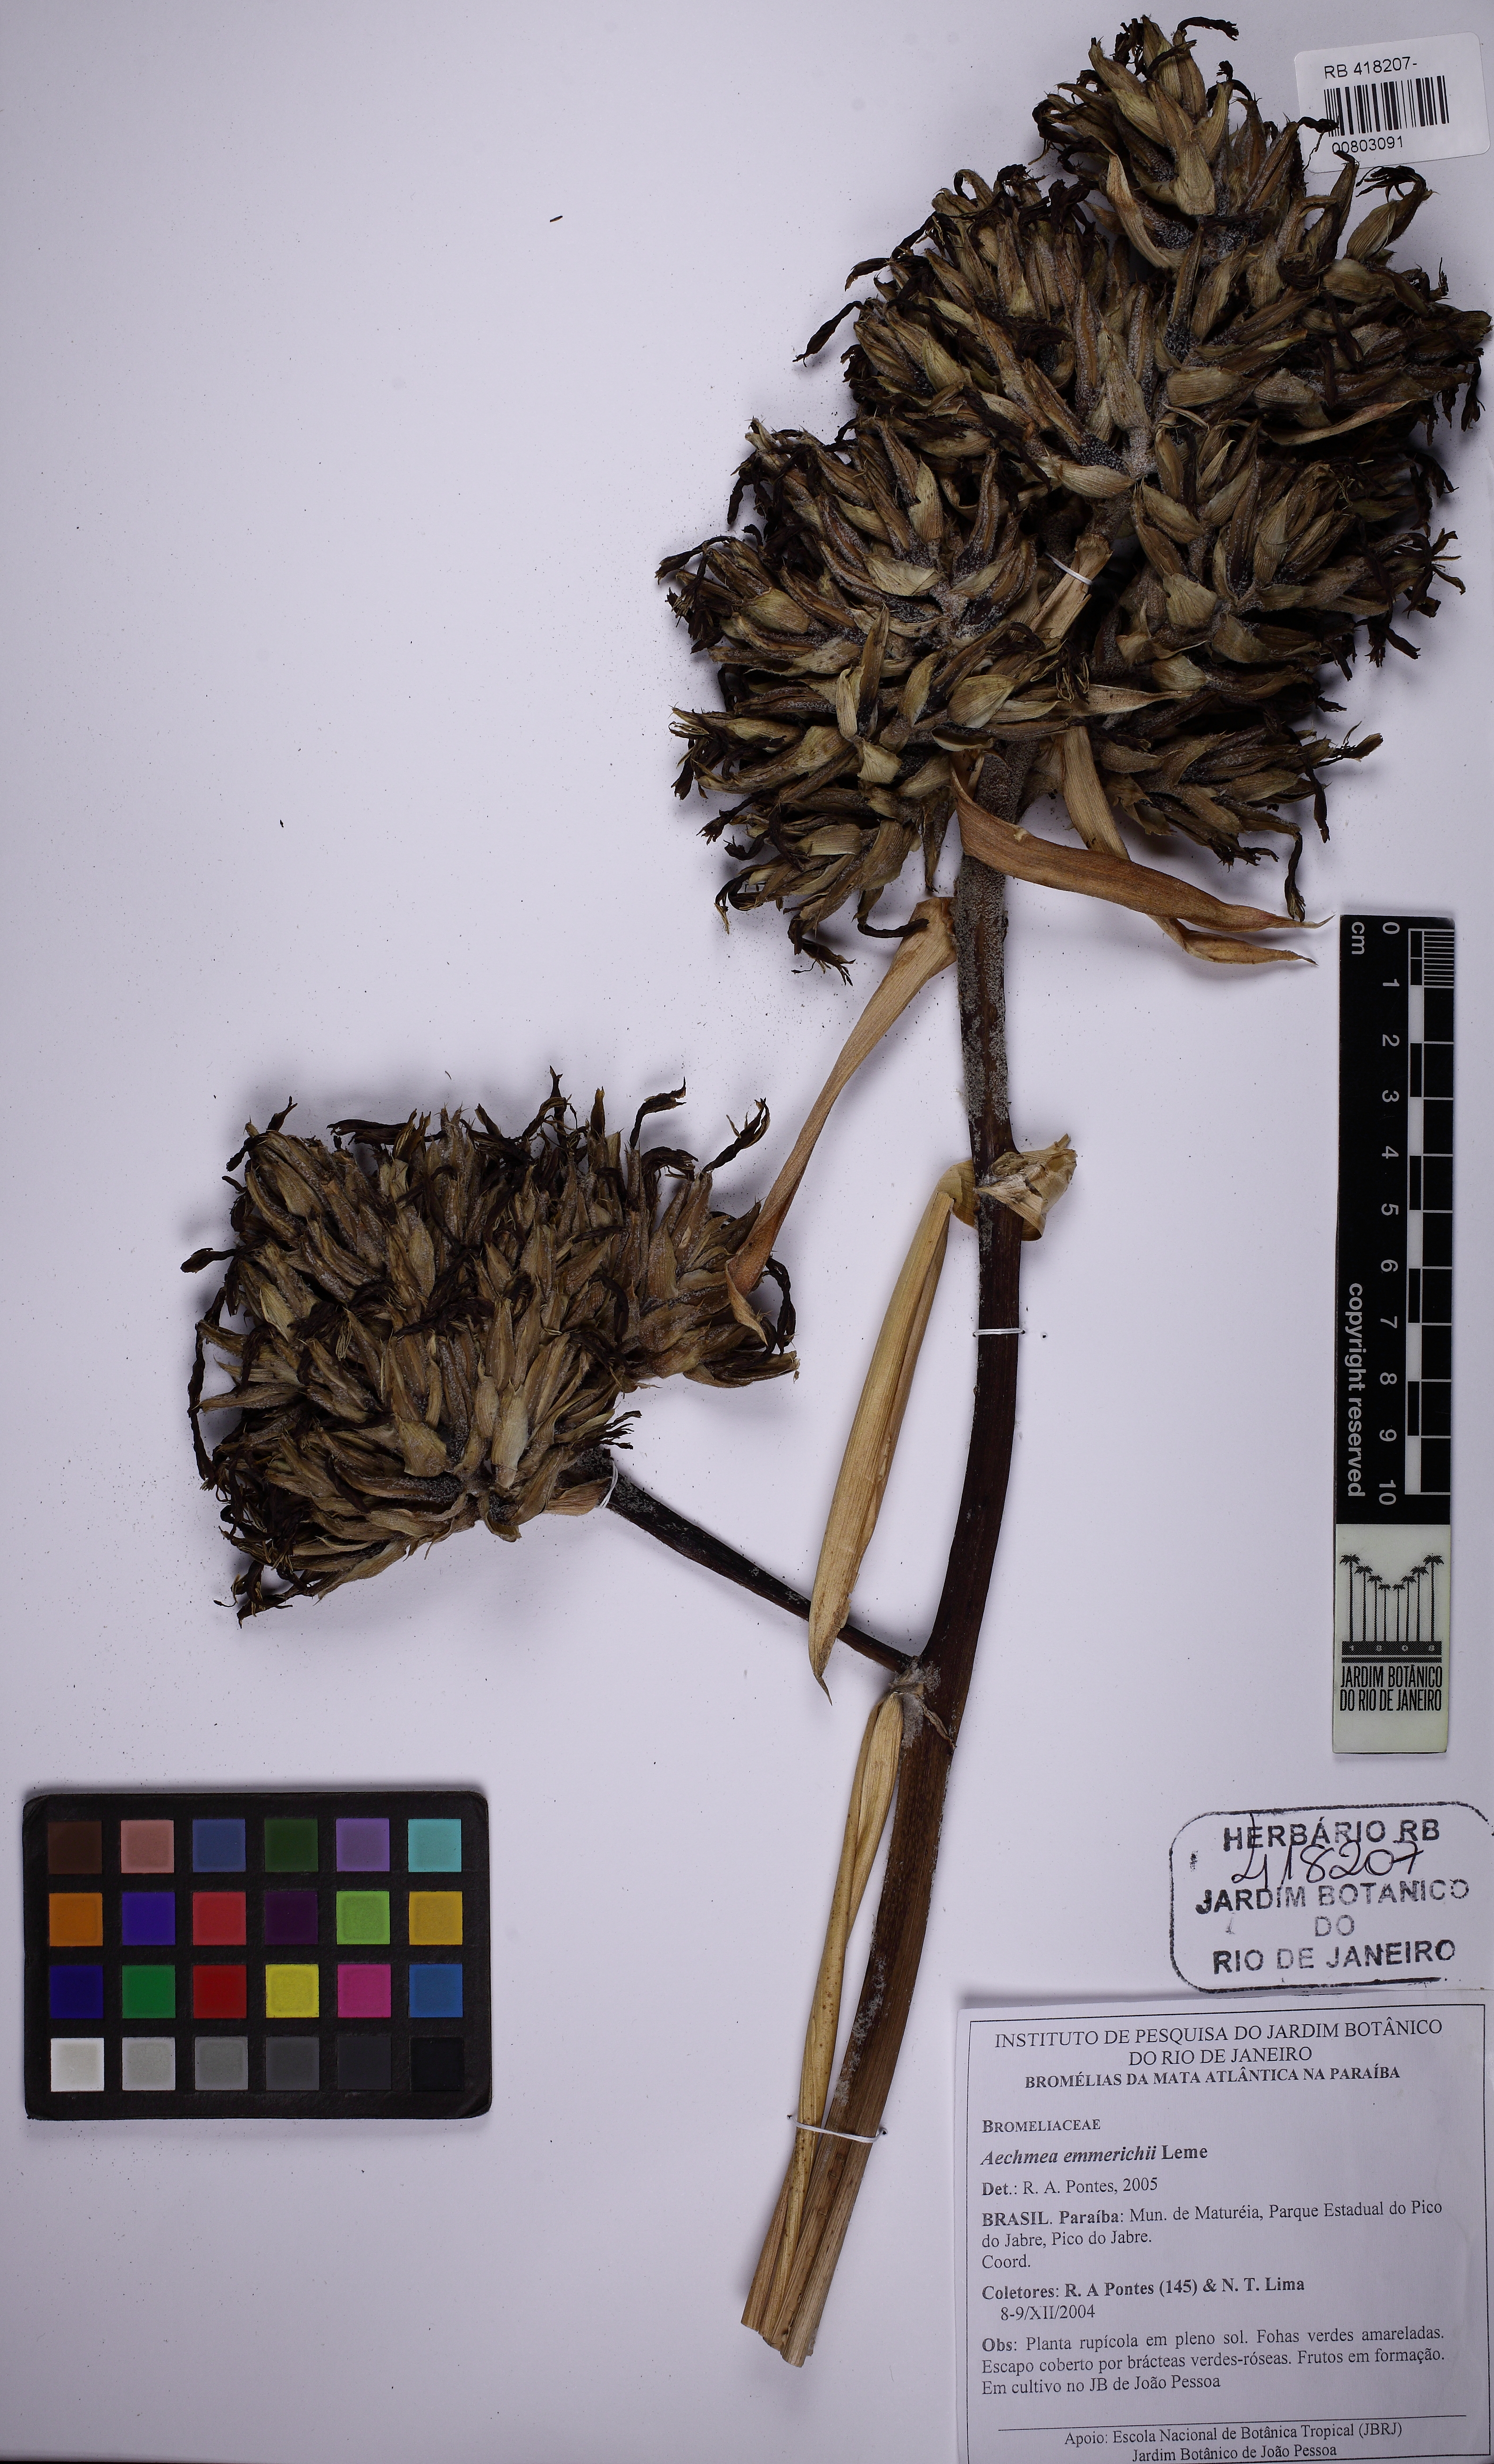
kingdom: Plantae
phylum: Tracheophyta
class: Liliopsida
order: Poales
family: Bromeliaceae
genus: Aechmea
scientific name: Aechmea emmerichiae
